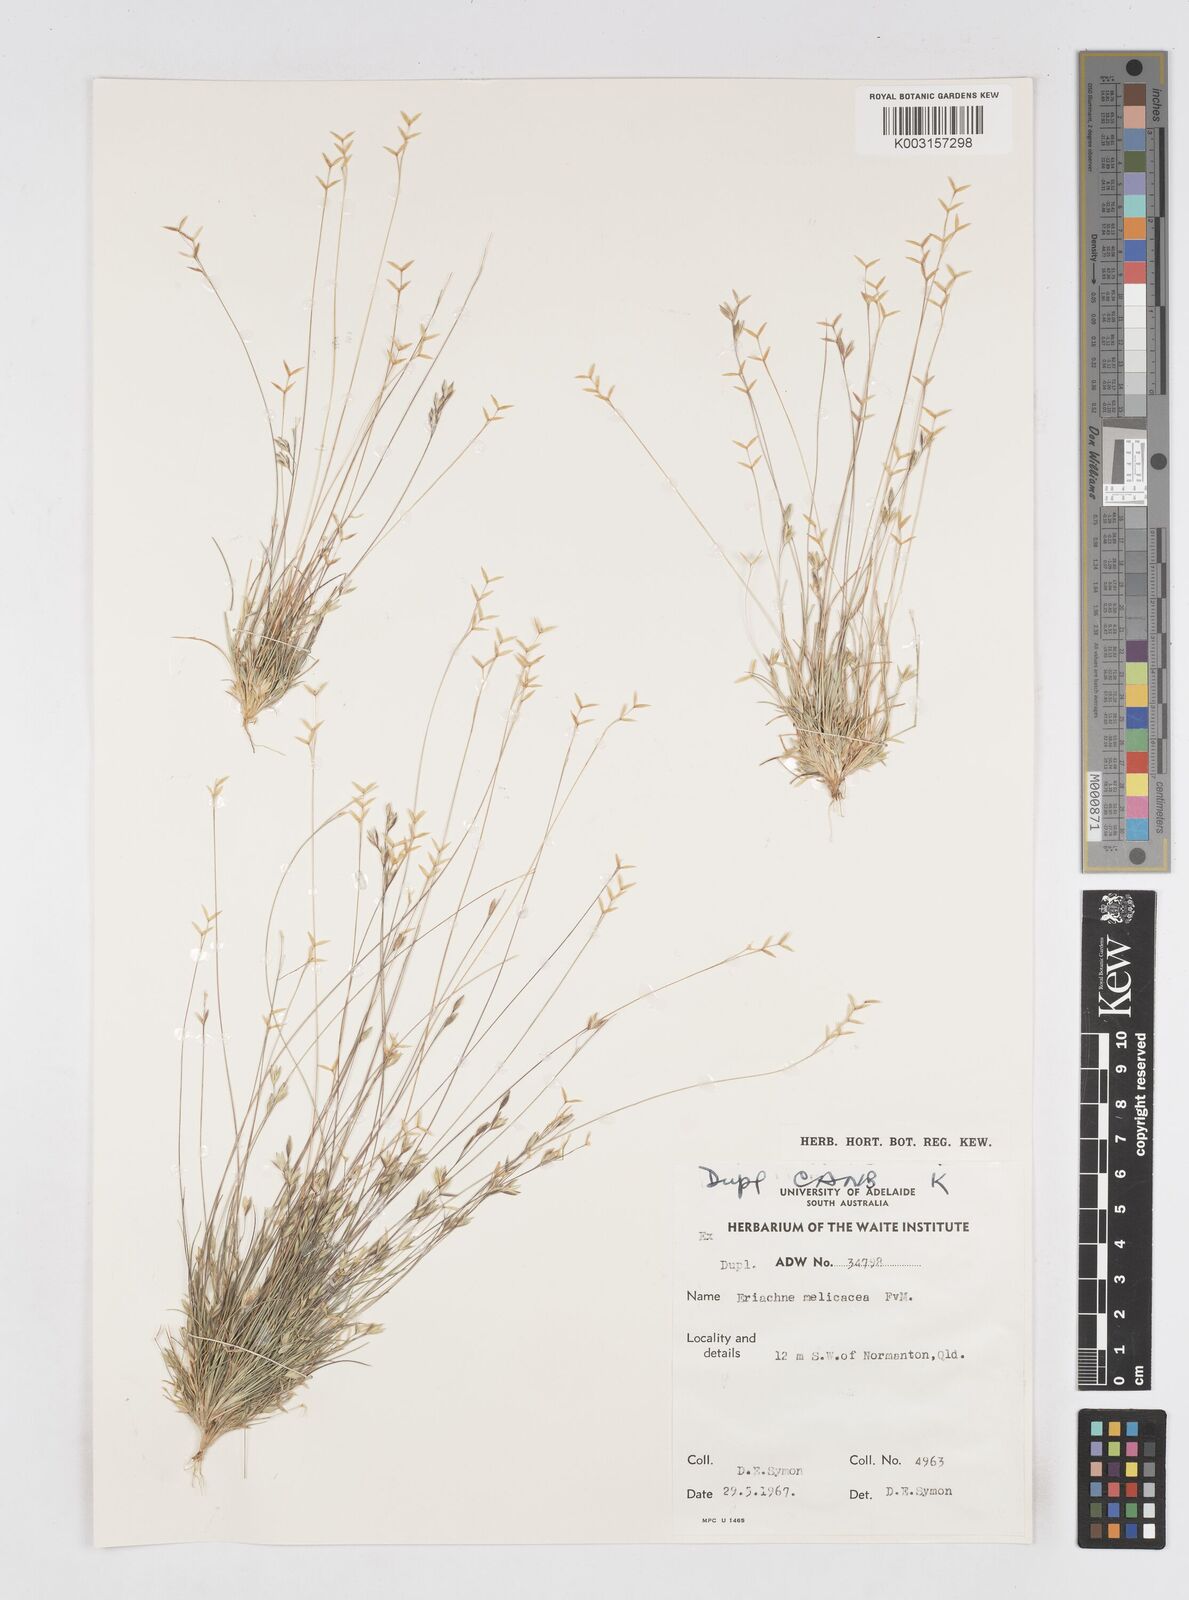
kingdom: Plantae
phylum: Tracheophyta
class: Liliopsida
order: Poales
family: Poaceae
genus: Eriachne
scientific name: Eriachne melicacea
